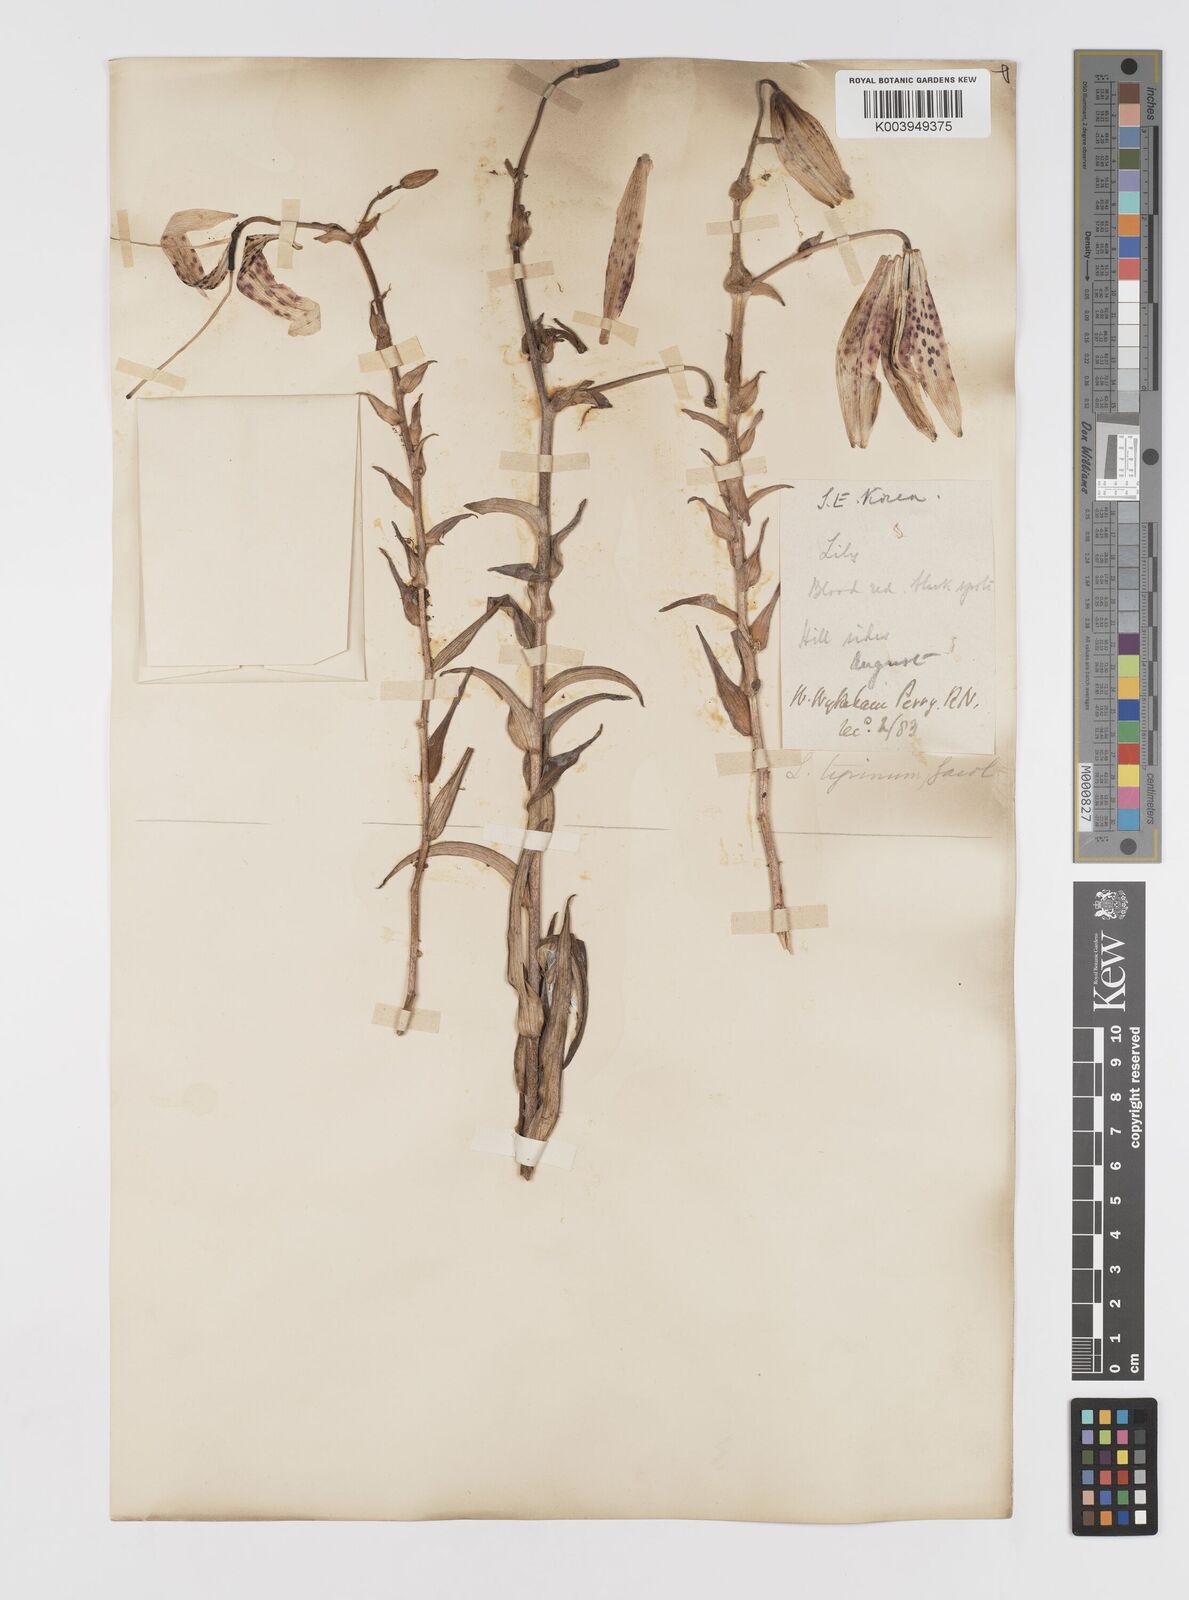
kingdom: Plantae
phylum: Tracheophyta
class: Liliopsida
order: Liliales
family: Liliaceae
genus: Lilium
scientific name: Lilium lancifolium
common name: Tiger lily
